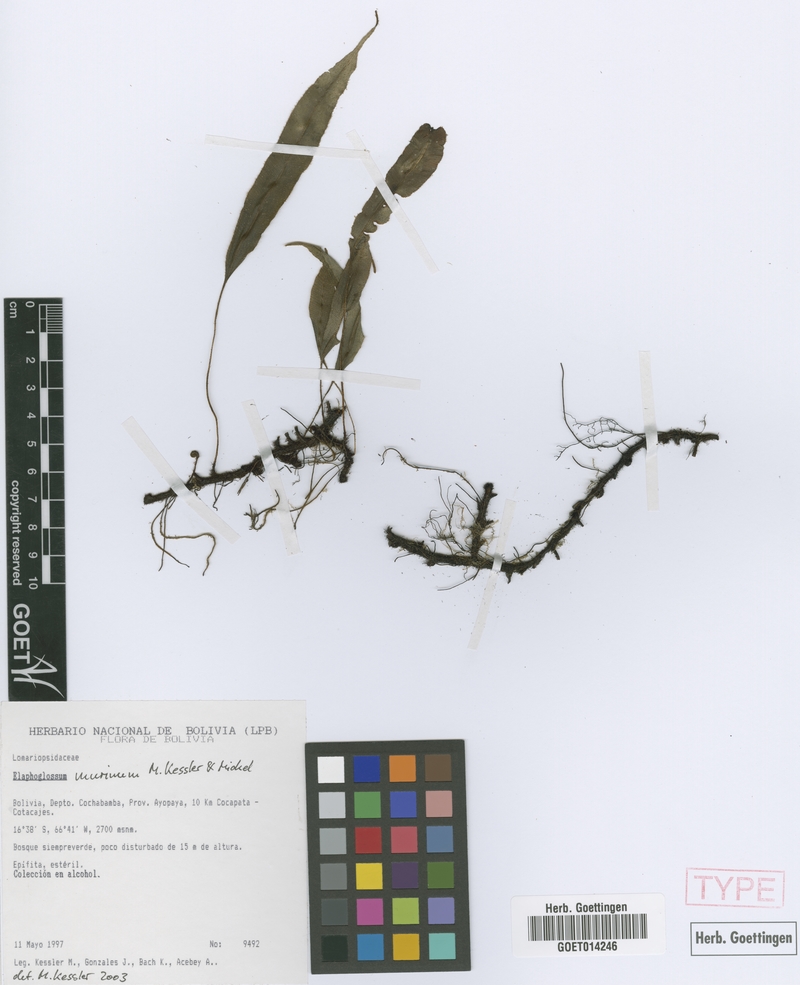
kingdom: Plantae
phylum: Tracheophyta
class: Polypodiopsida
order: Polypodiales
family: Dryopteridaceae
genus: Elaphoglossum
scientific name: Elaphoglossum murinum
